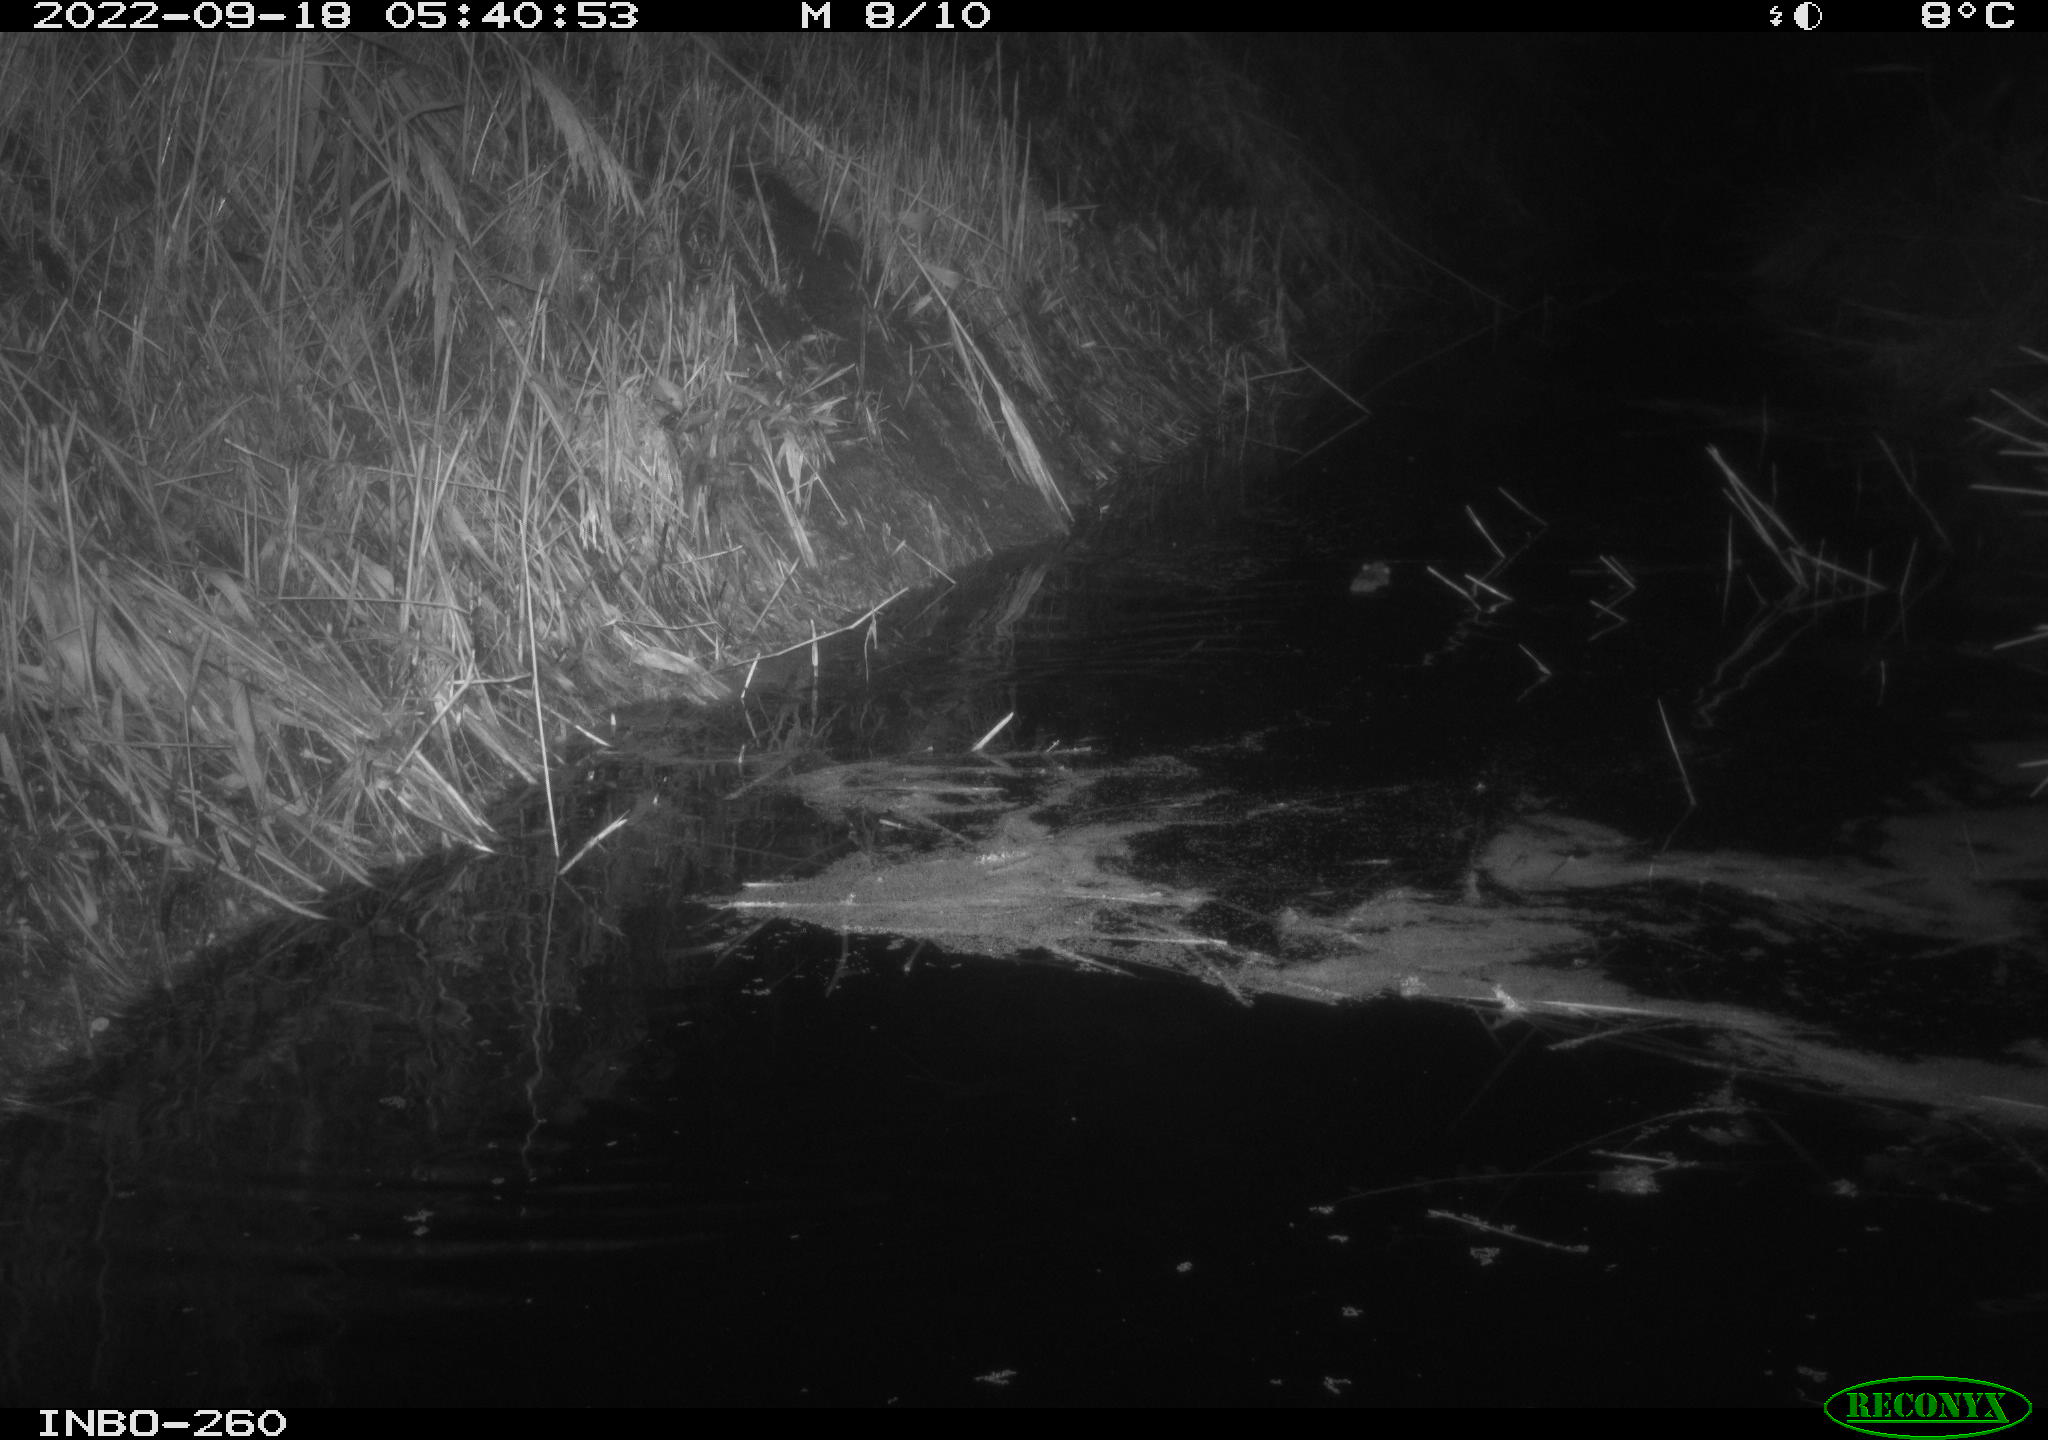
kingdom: Animalia
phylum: Chordata
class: Mammalia
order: Rodentia
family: Muridae
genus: Rattus
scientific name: Rattus norvegicus
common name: Brown rat
